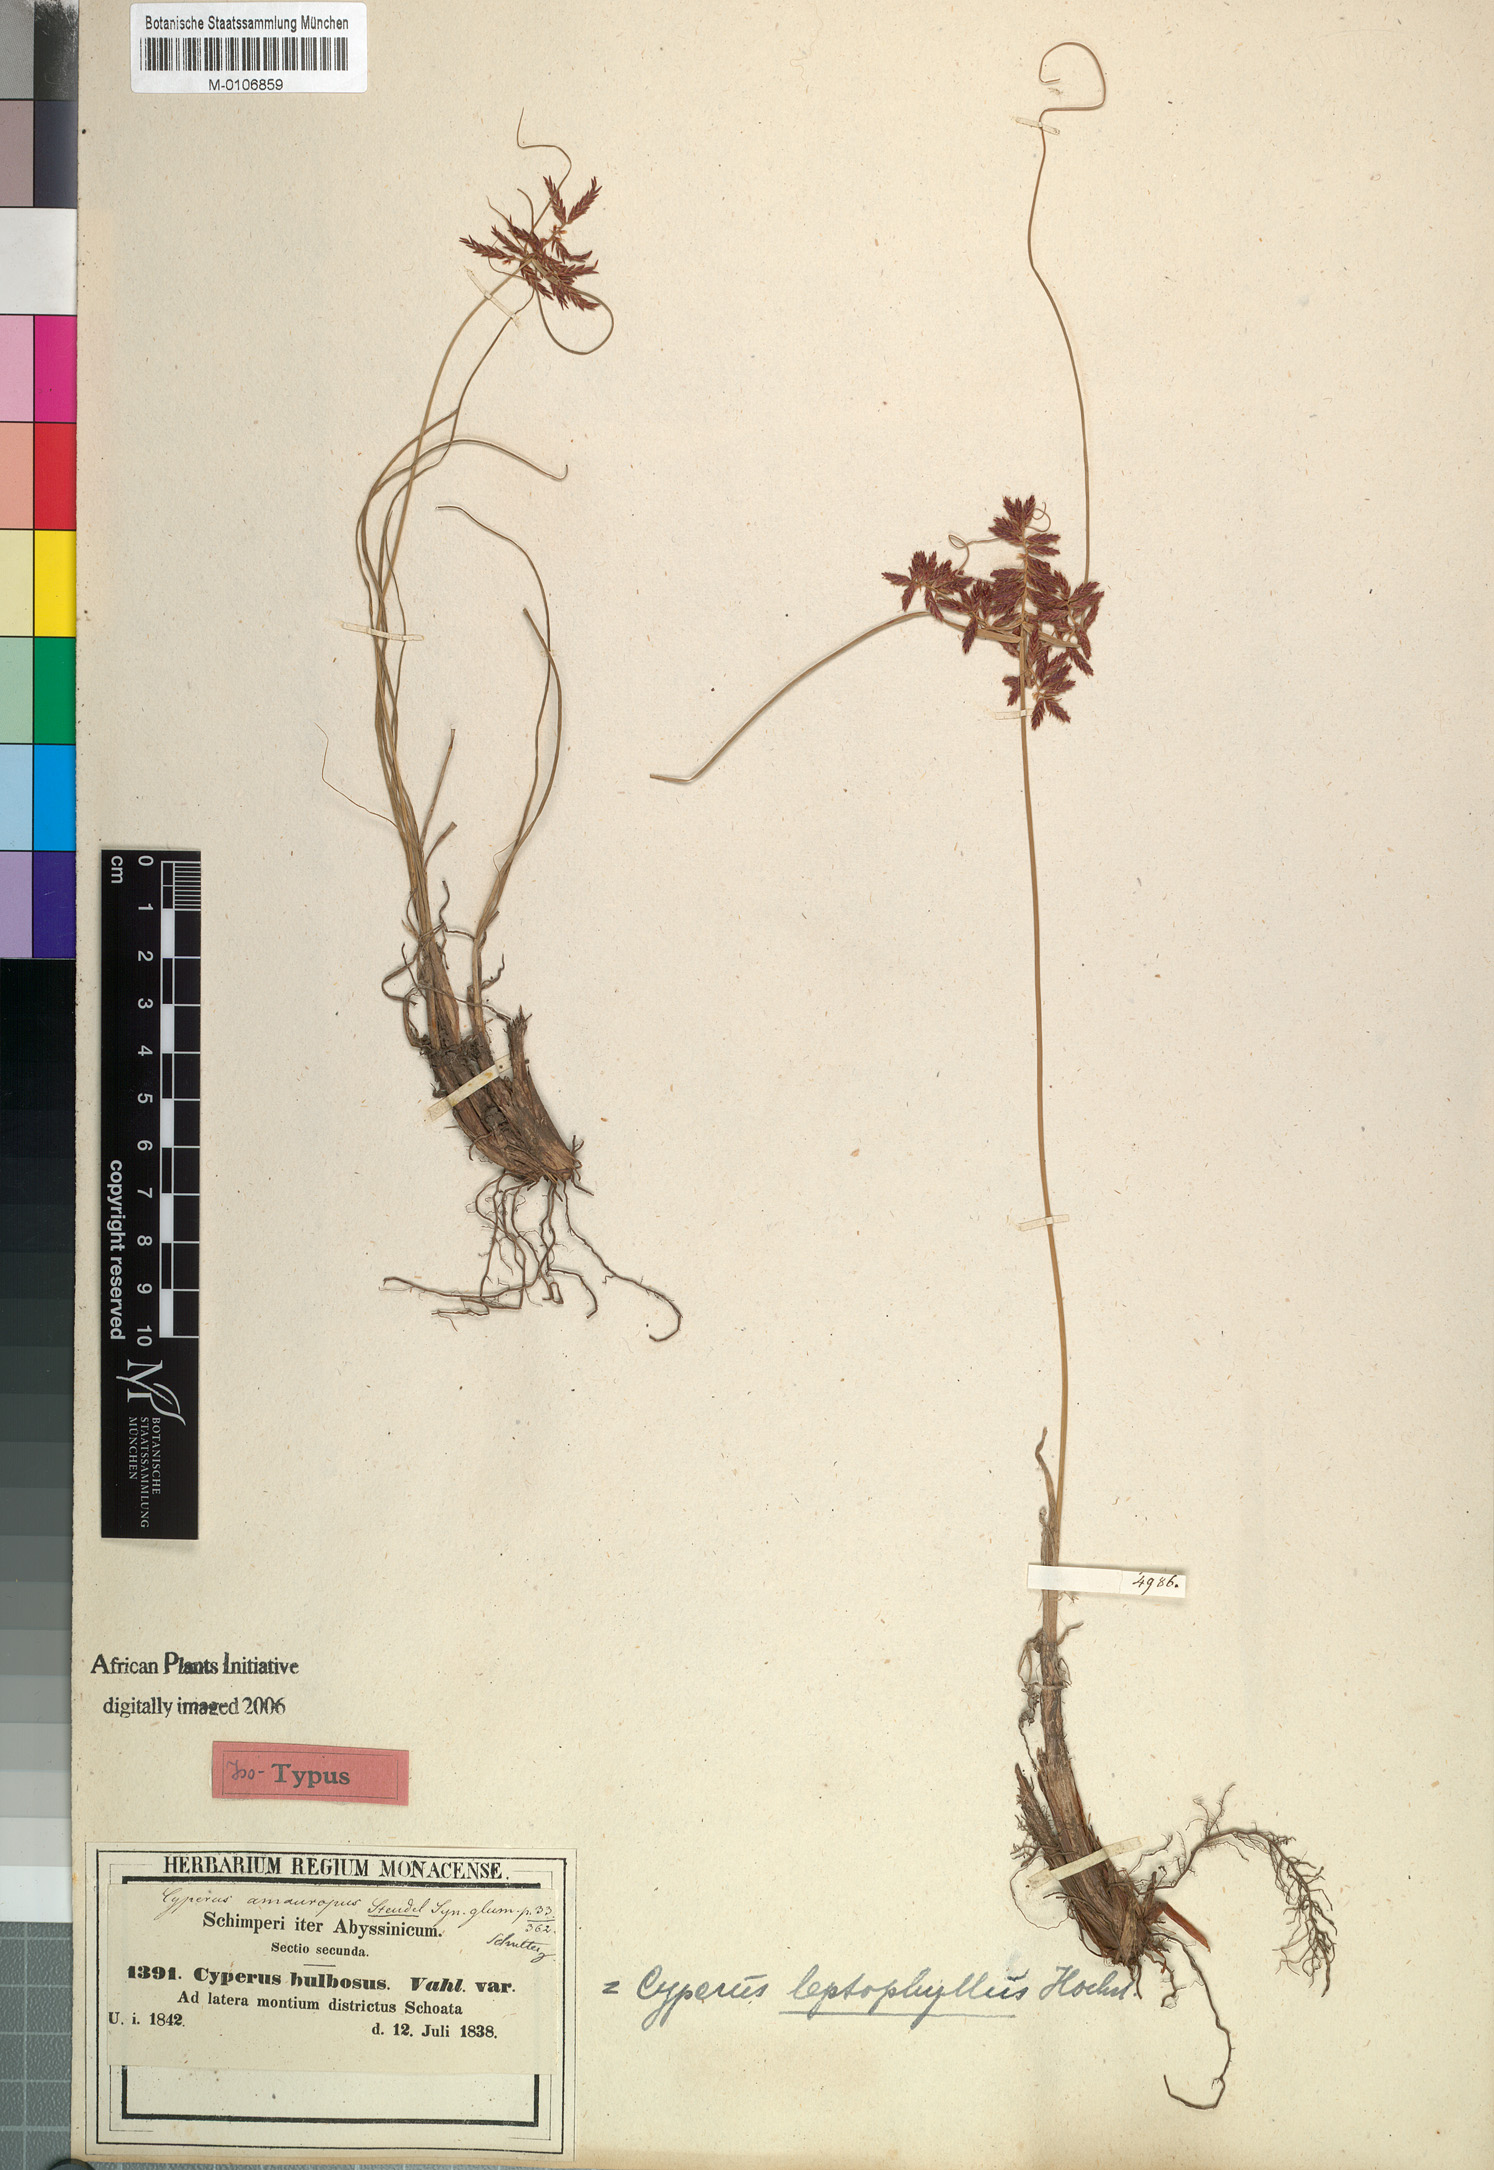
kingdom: Plantae
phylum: Tracheophyta
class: Liliopsida
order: Poales
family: Cyperaceae
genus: Cyperus
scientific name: Cyperus amauropus
